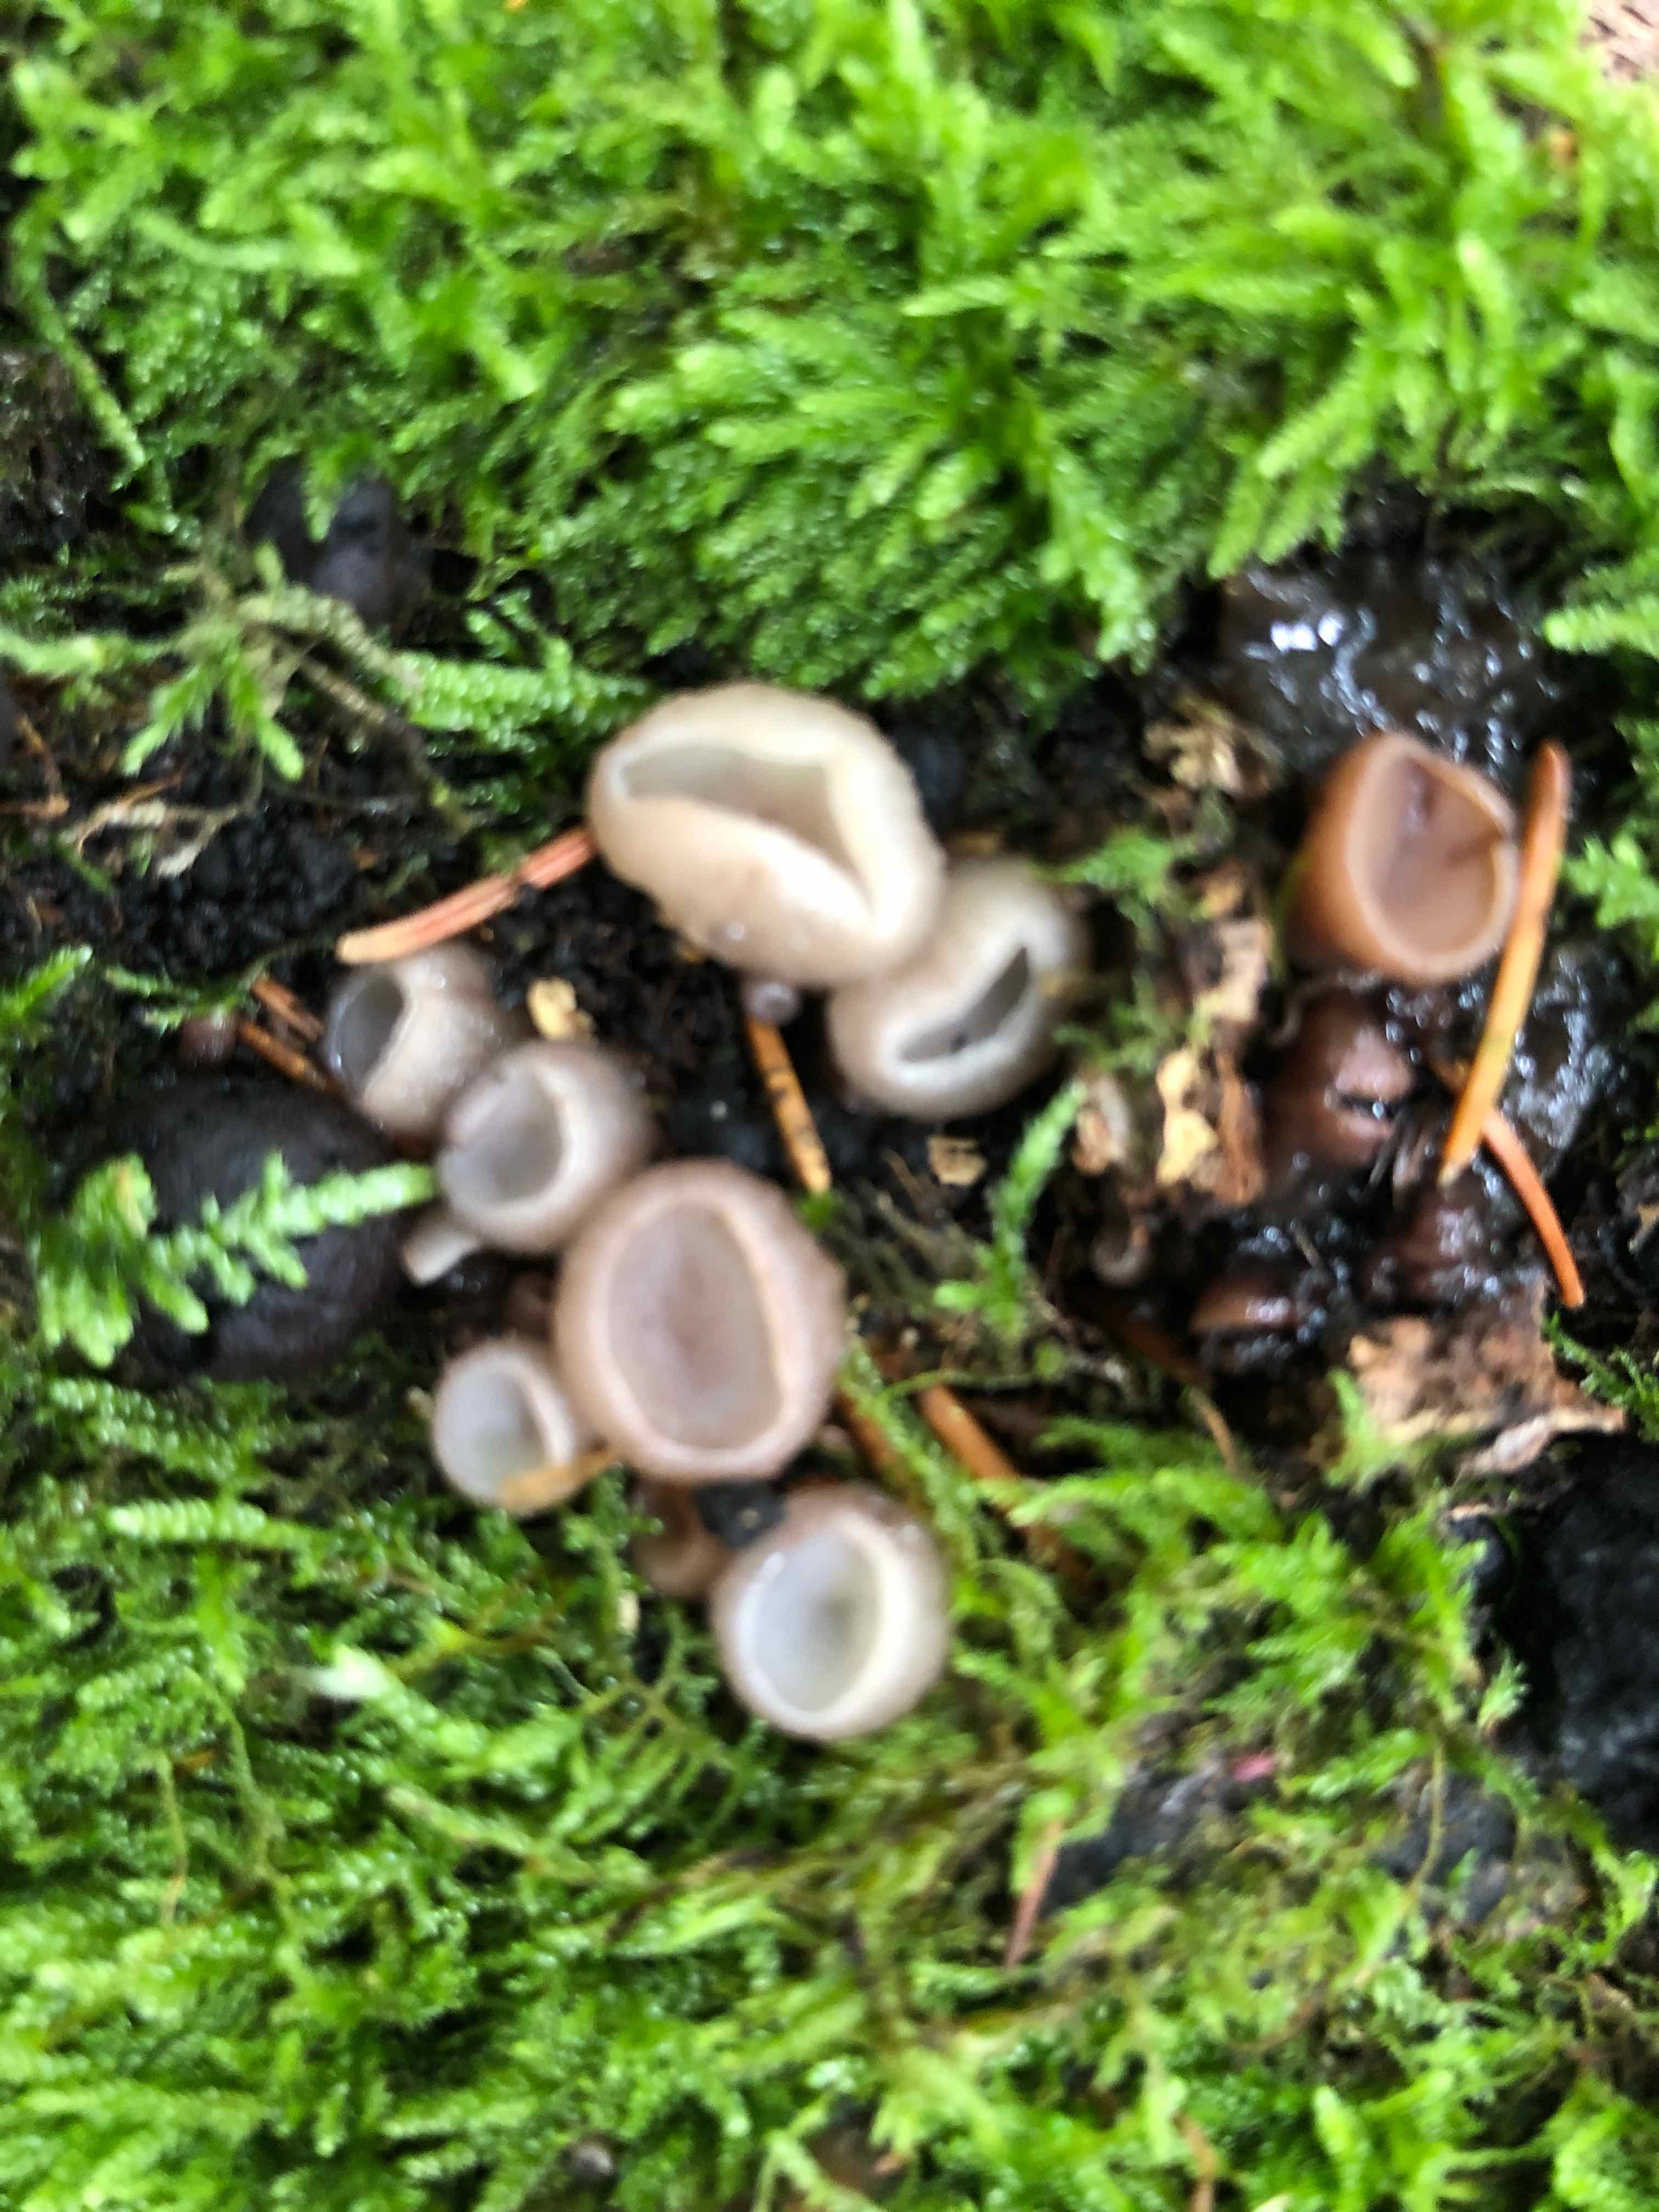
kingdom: Fungi
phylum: Ascomycota
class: Leotiomycetes
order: Helotiales
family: Gelatinodiscaceae
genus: Neobulgaria
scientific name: Neobulgaria pura
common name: bleg bævreskive
